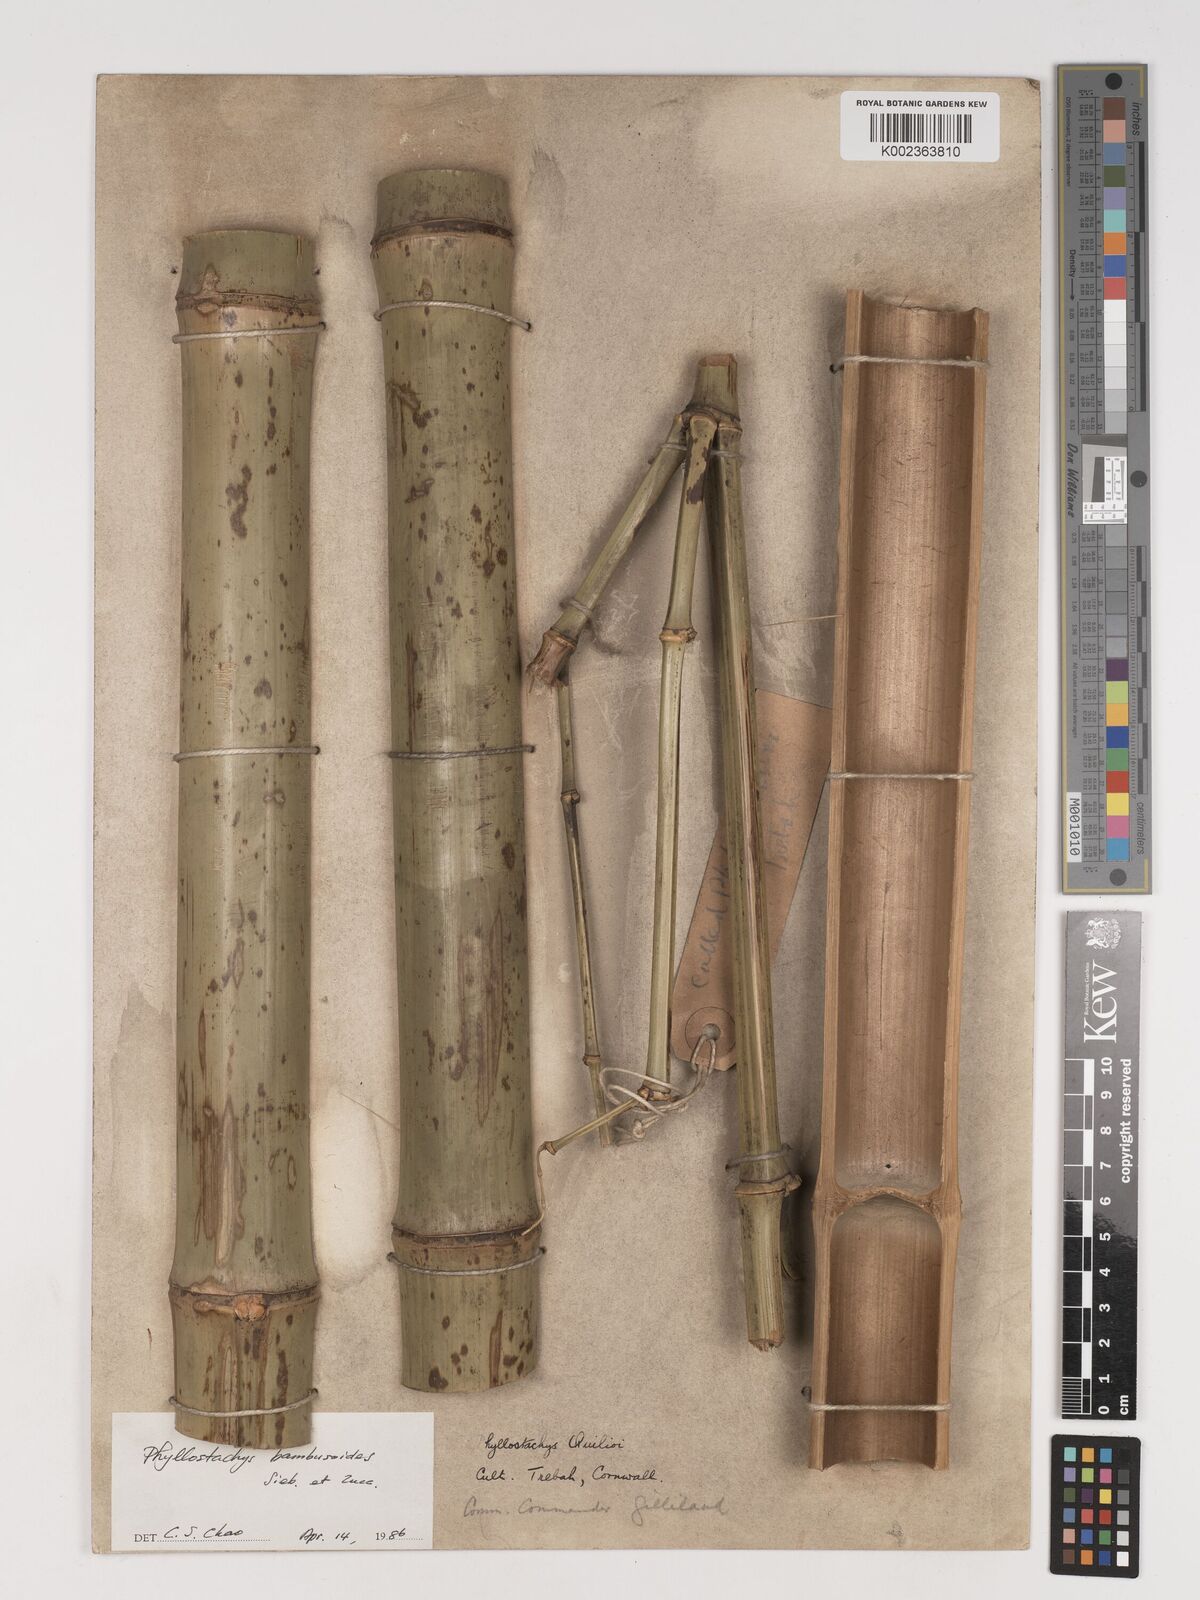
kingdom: Plantae
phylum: Tracheophyta
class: Liliopsida
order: Poales
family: Poaceae
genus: Phyllostachys
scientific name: Phyllostachys reticulata
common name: Bamboo
